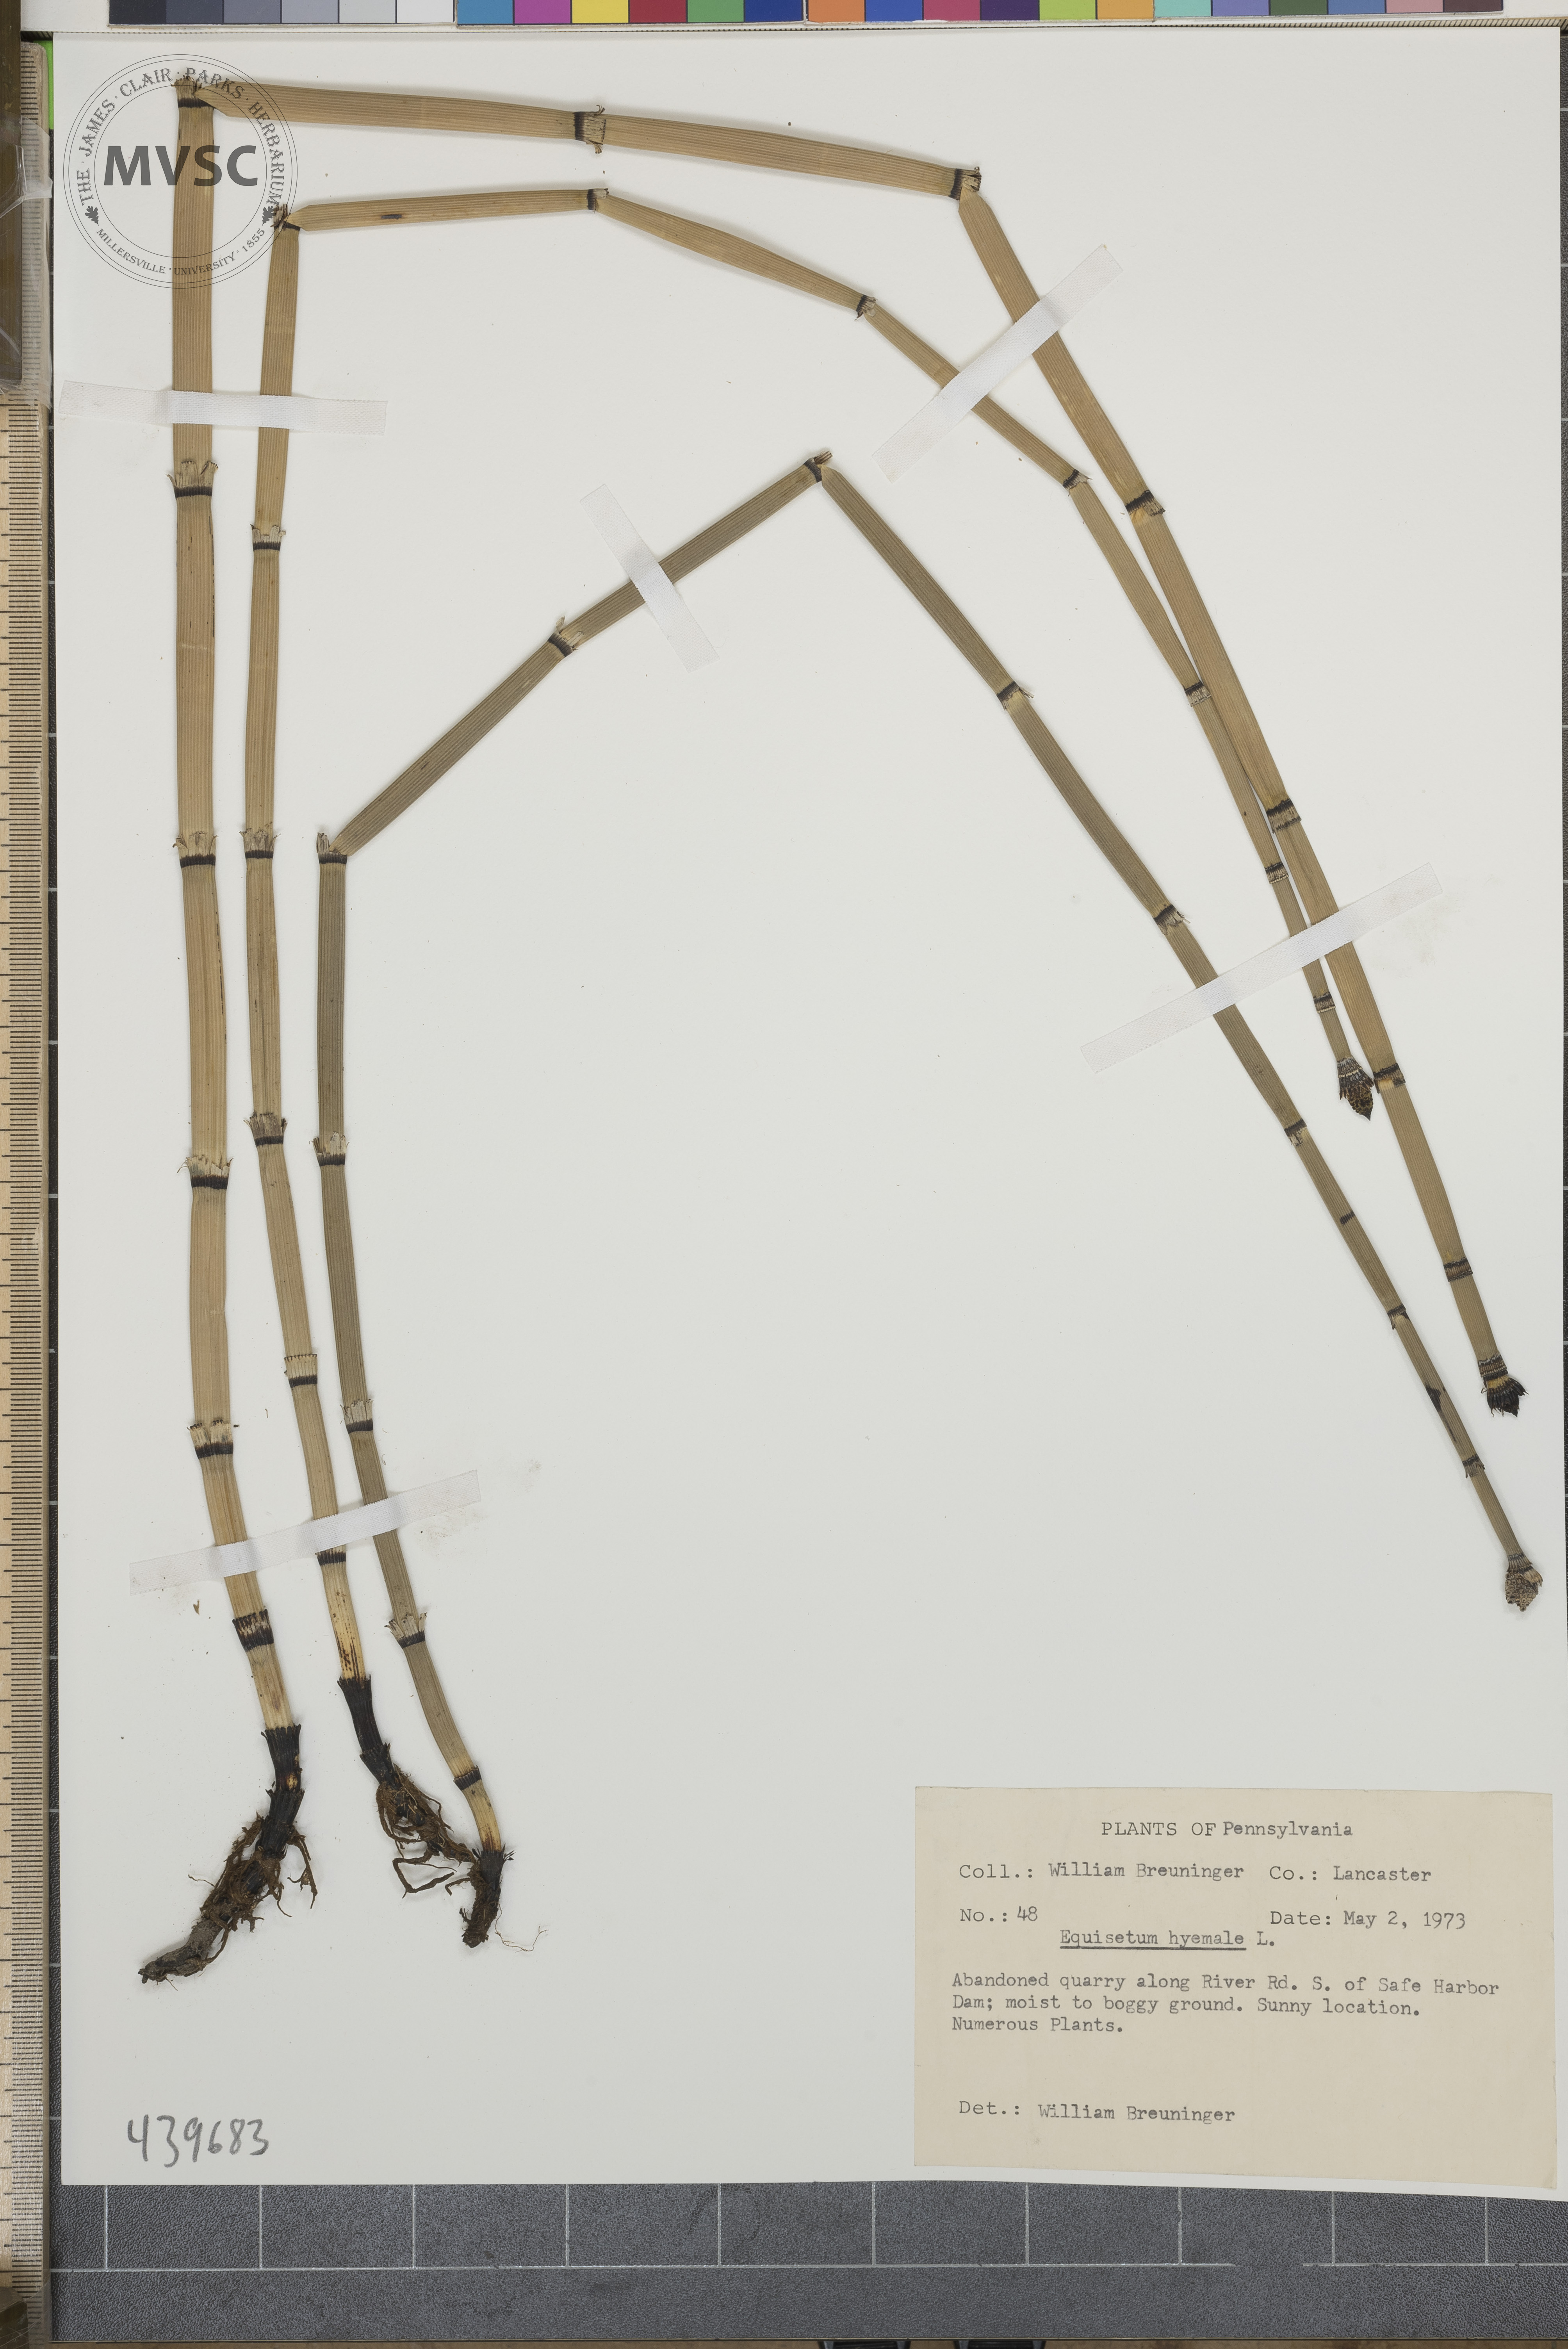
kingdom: Plantae
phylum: Tracheophyta
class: Polypodiopsida
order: Equisetales
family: Equisetaceae
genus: Equisetum
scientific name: Equisetum hyemale
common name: Rough horsetail
